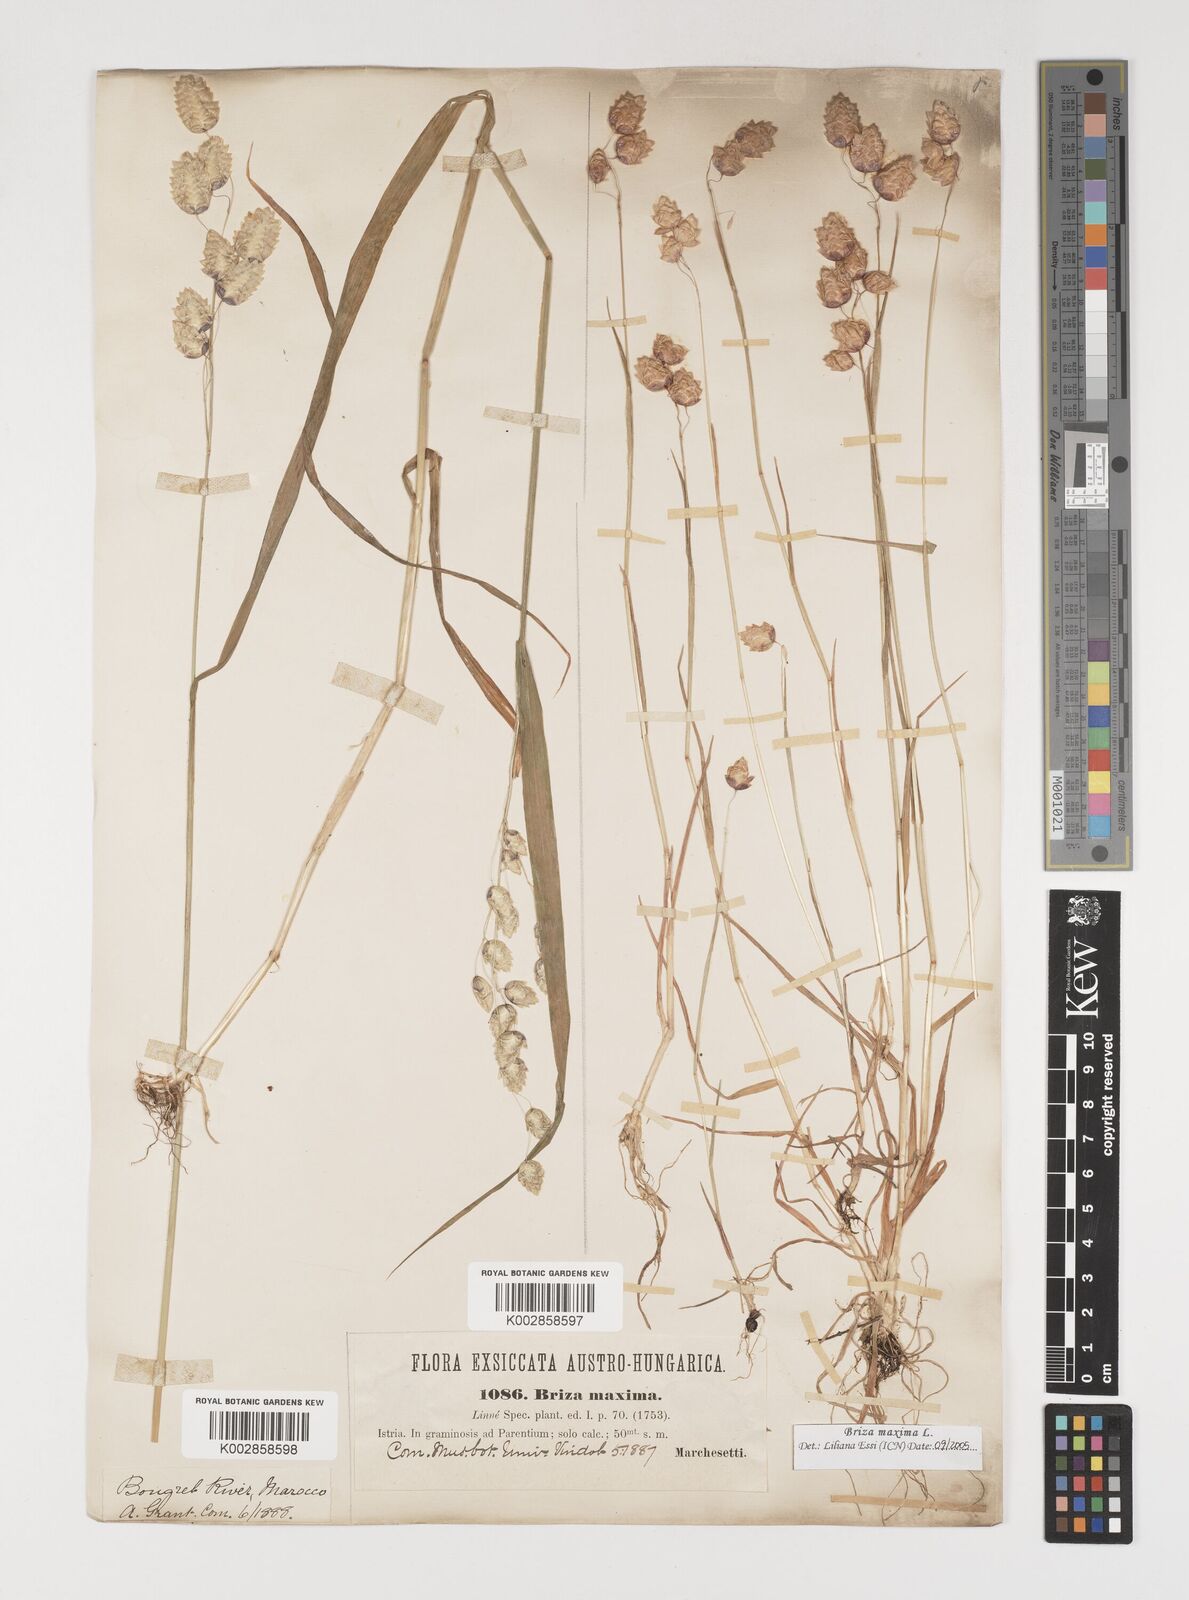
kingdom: Plantae
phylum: Tracheophyta
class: Liliopsida
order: Poales
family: Poaceae
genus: Briza
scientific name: Briza maxima
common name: Big quakinggrass
